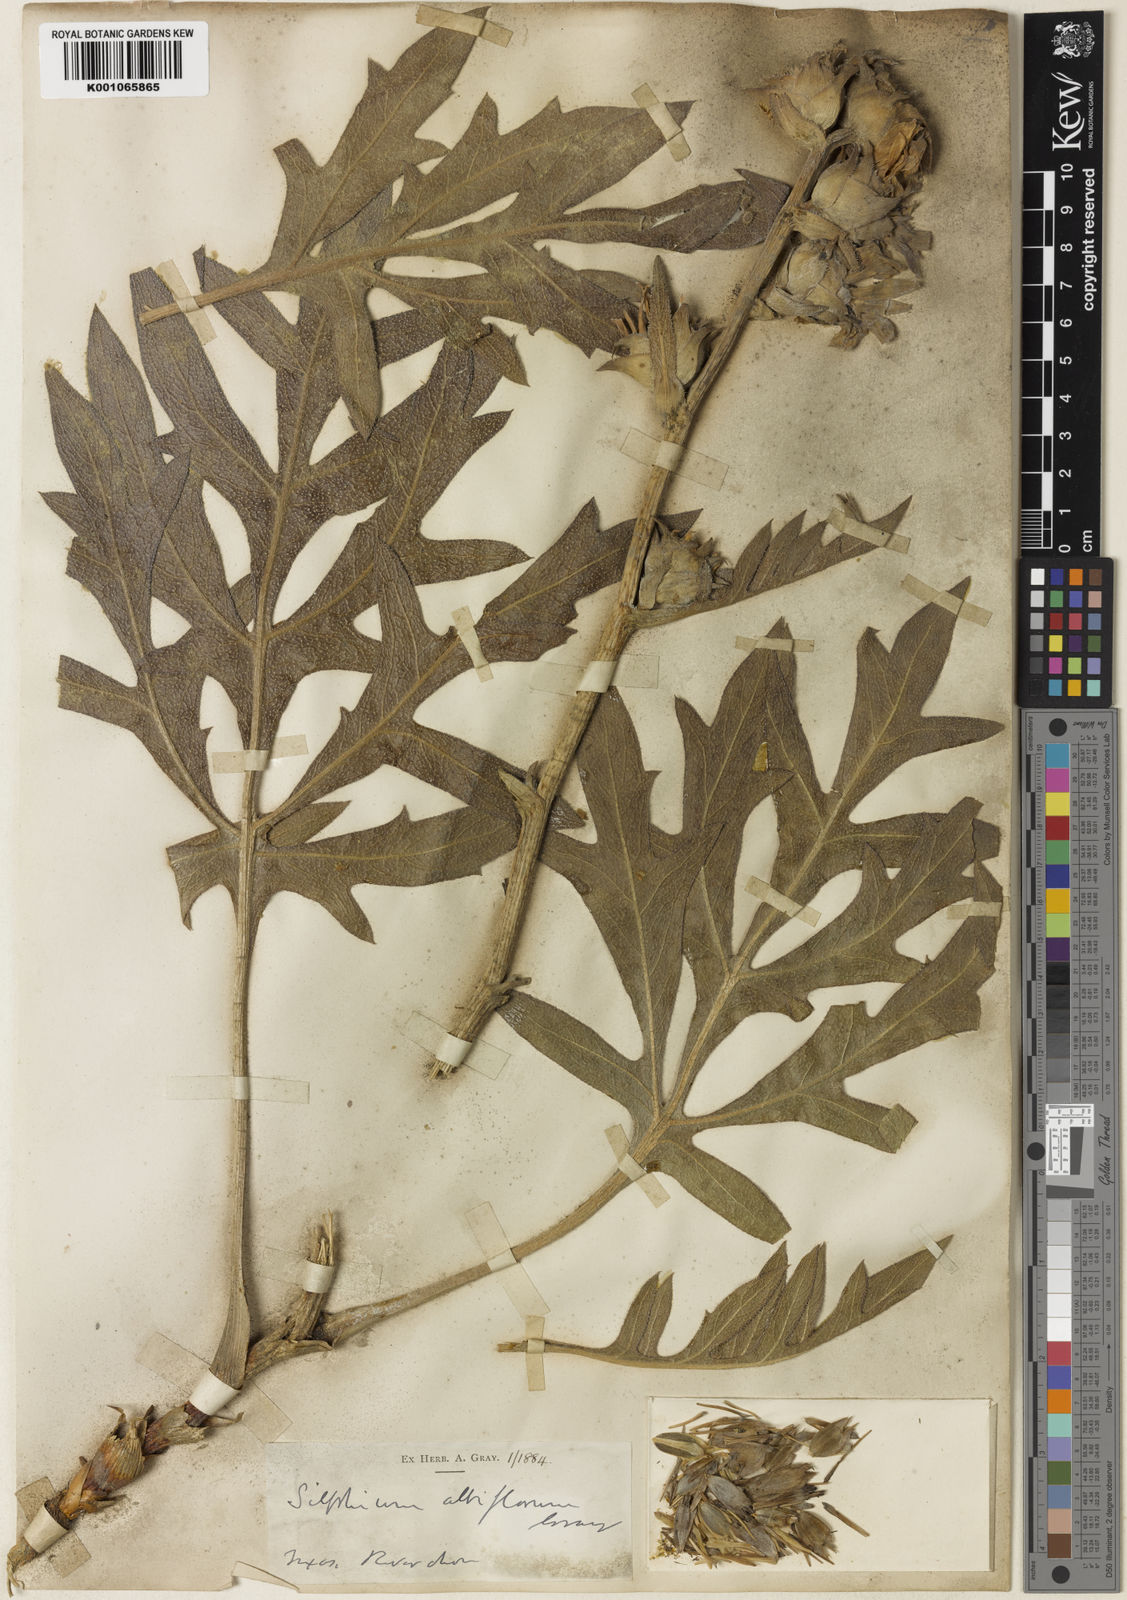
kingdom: Plantae
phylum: Tracheophyta
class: Magnoliopsida
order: Asterales
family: Asteraceae
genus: Silphium
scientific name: Silphium albiflorum
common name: White rosinweed
